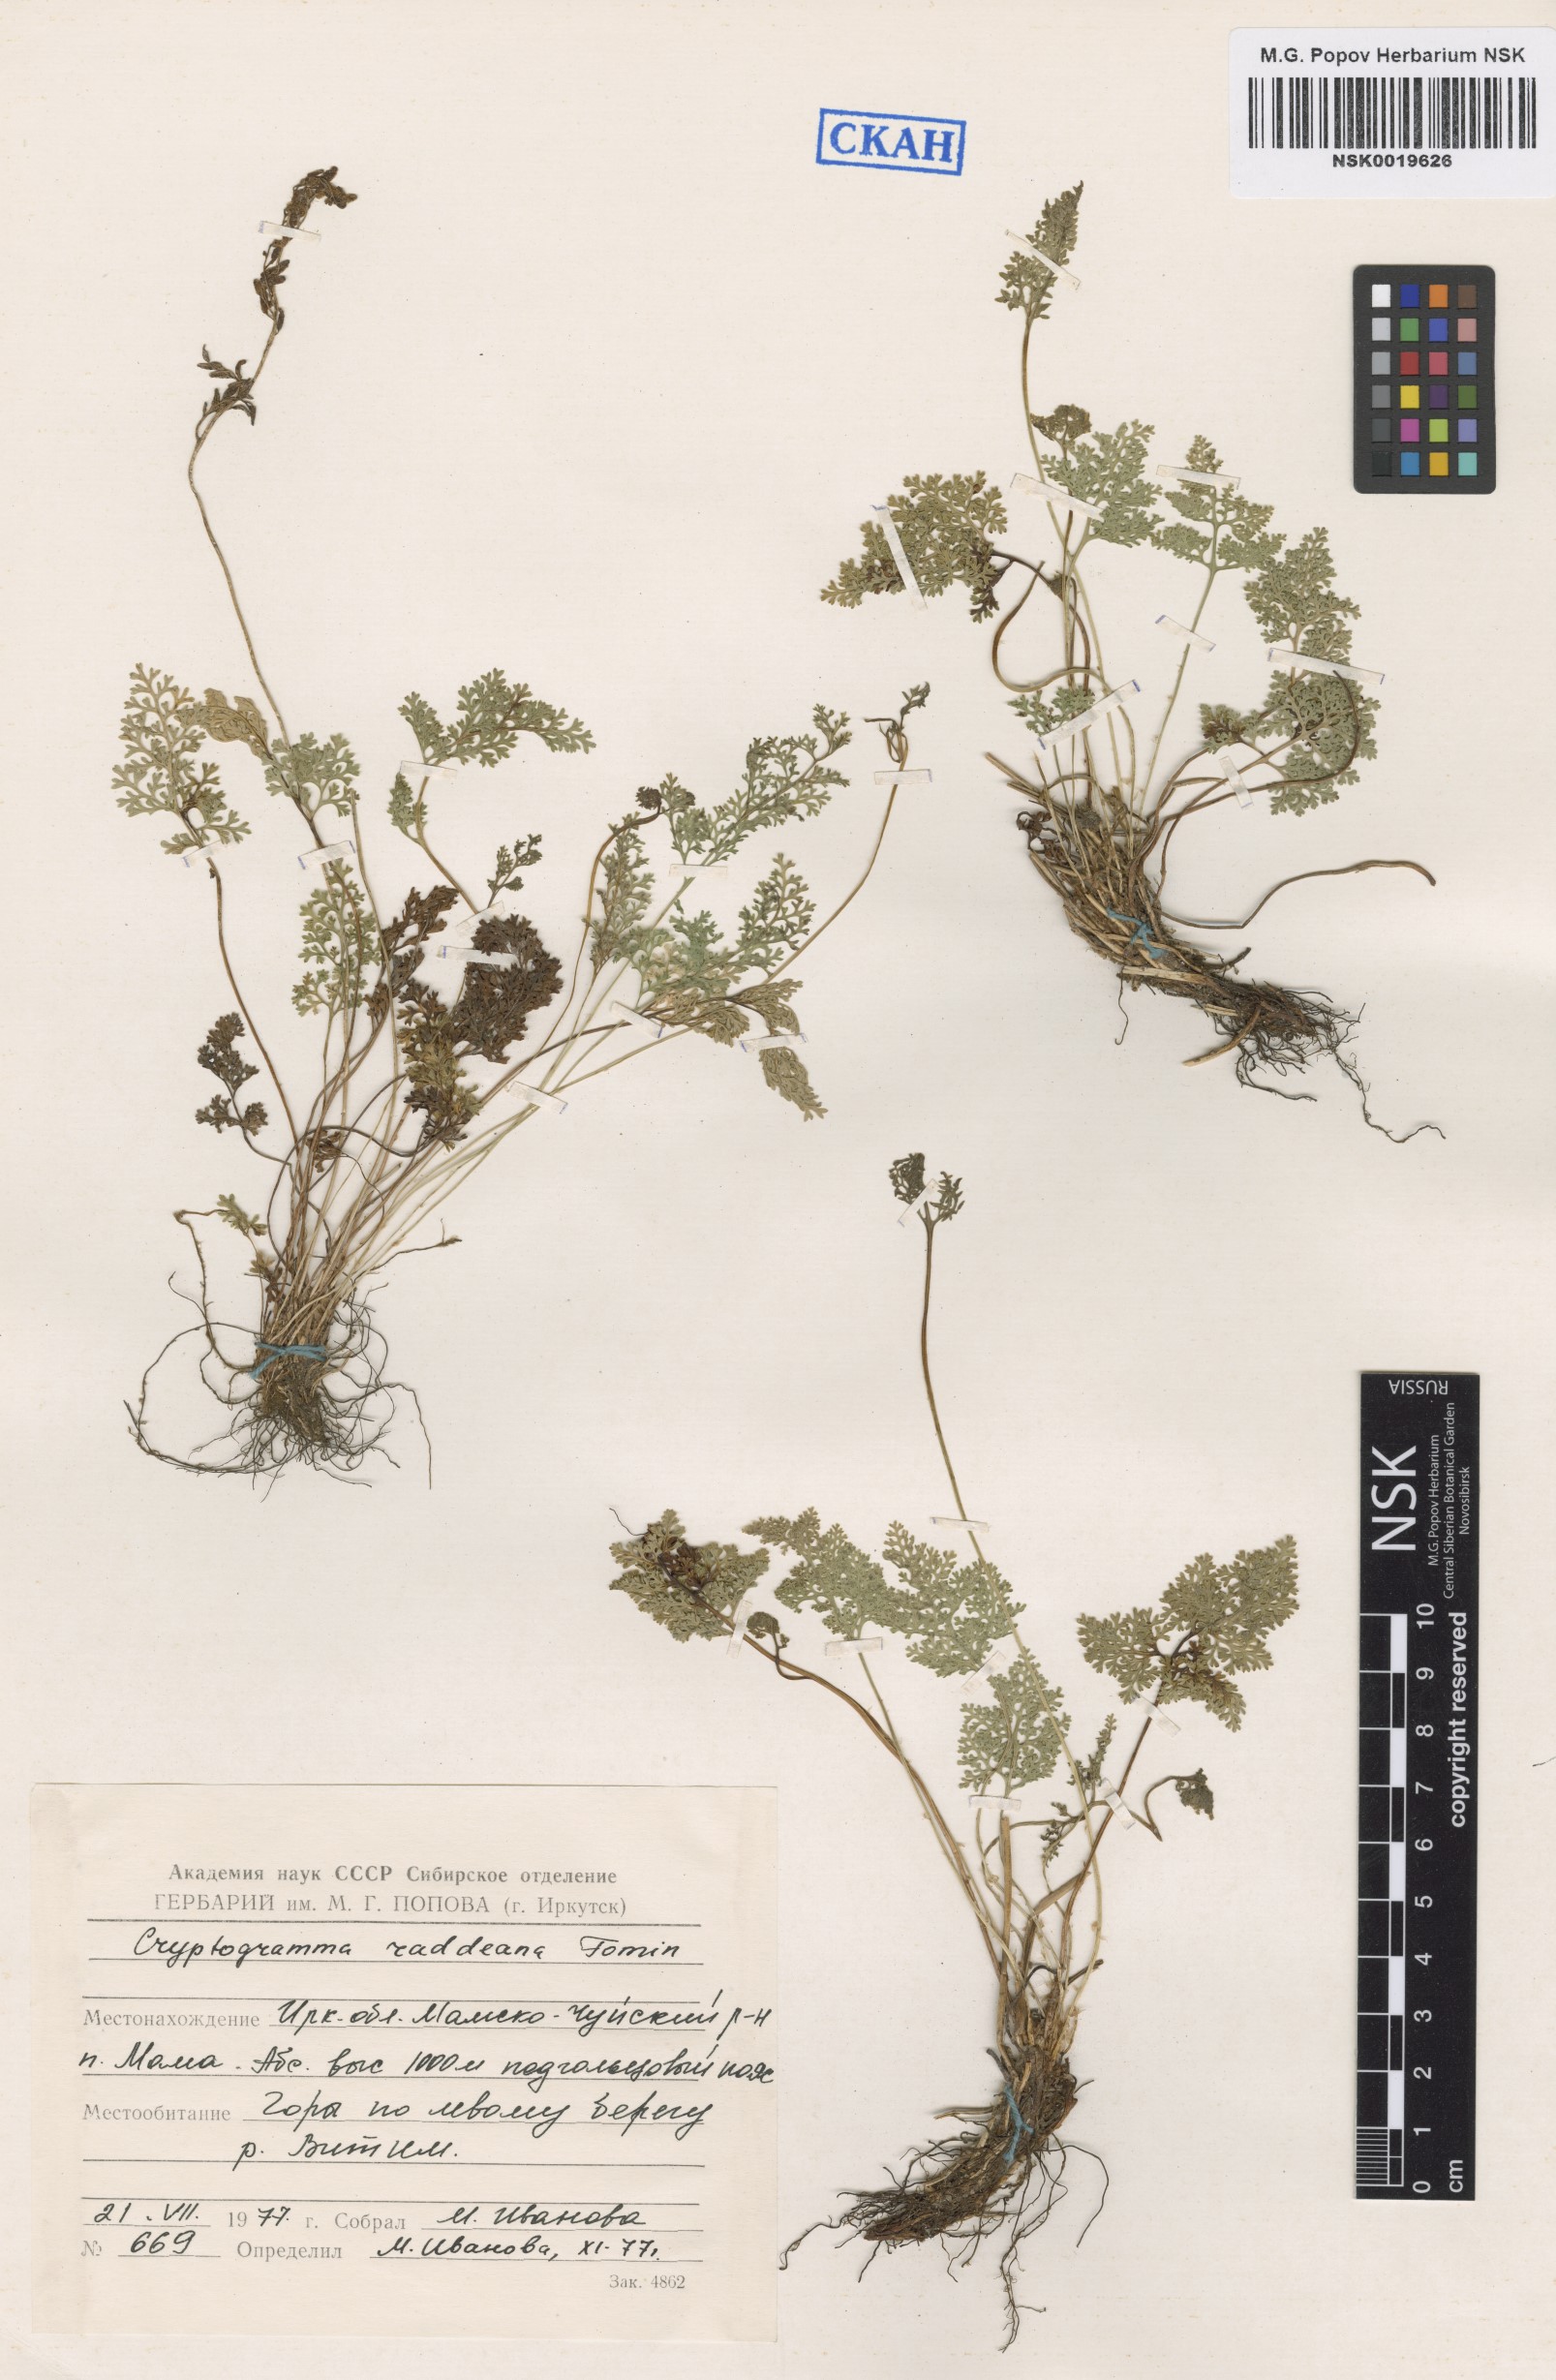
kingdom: Plantae
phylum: Tracheophyta
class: Polypodiopsida
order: Polypodiales
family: Pteridaceae
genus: Cryptogramma
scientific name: Cryptogramma brunoniana
